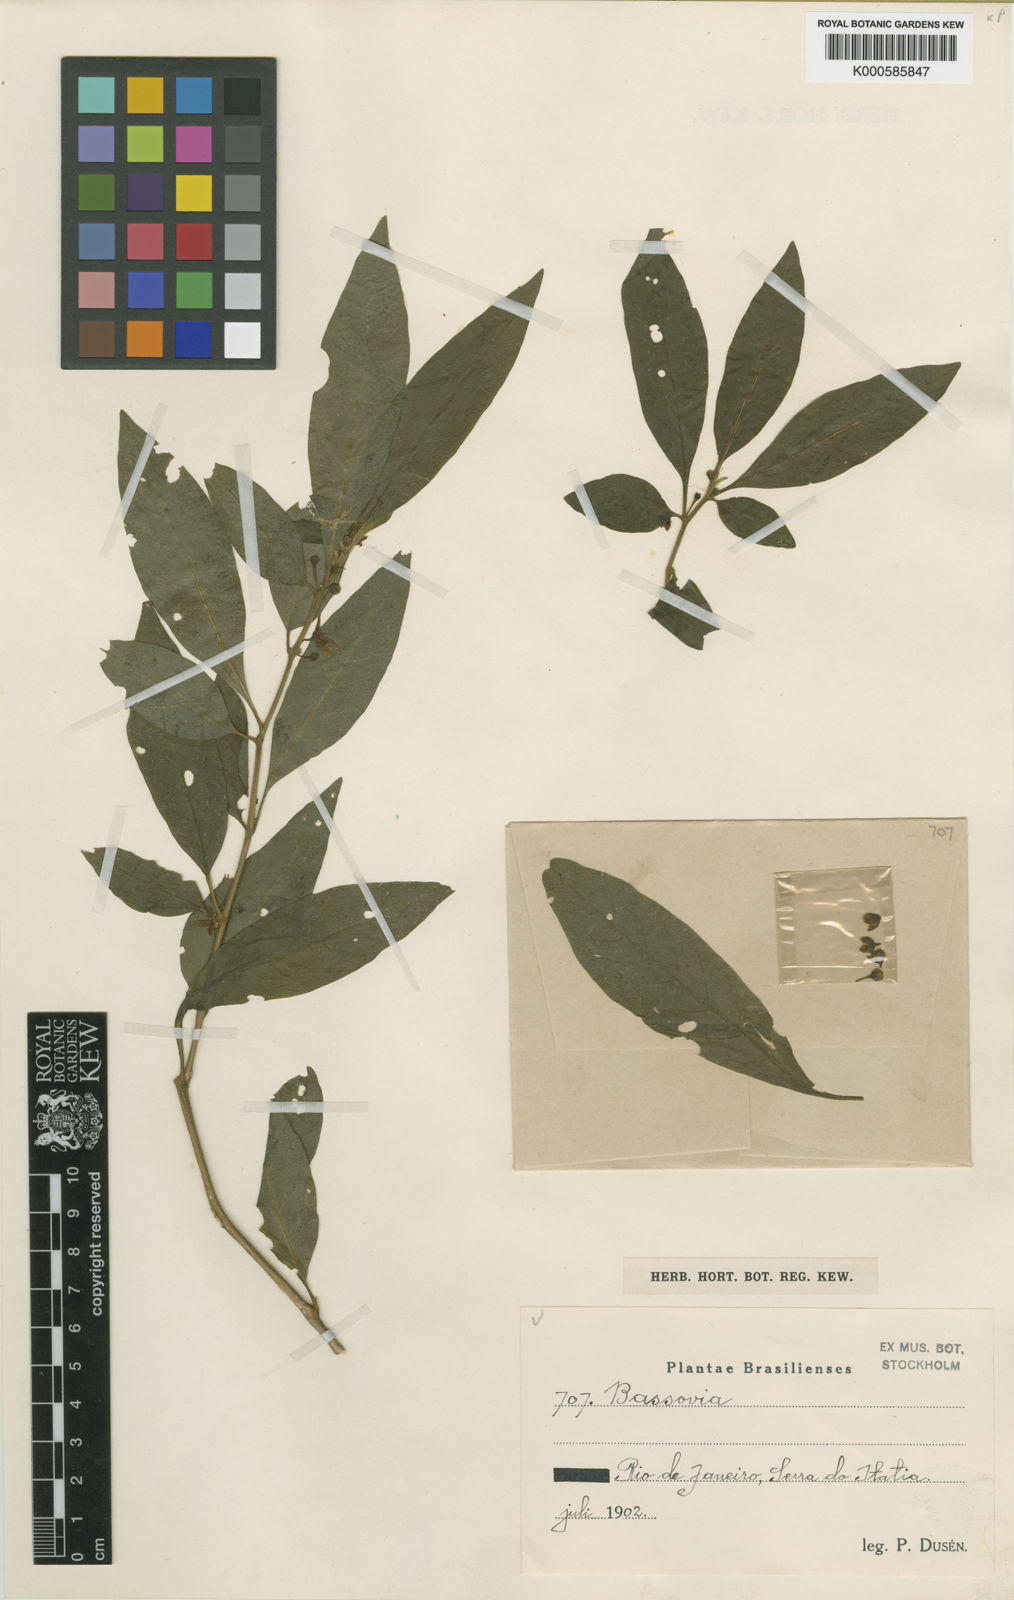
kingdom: Plantae
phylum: Tracheophyta
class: Magnoliopsida
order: Solanales
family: Solanaceae
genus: Athenaea
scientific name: Athenaea brasiliana
